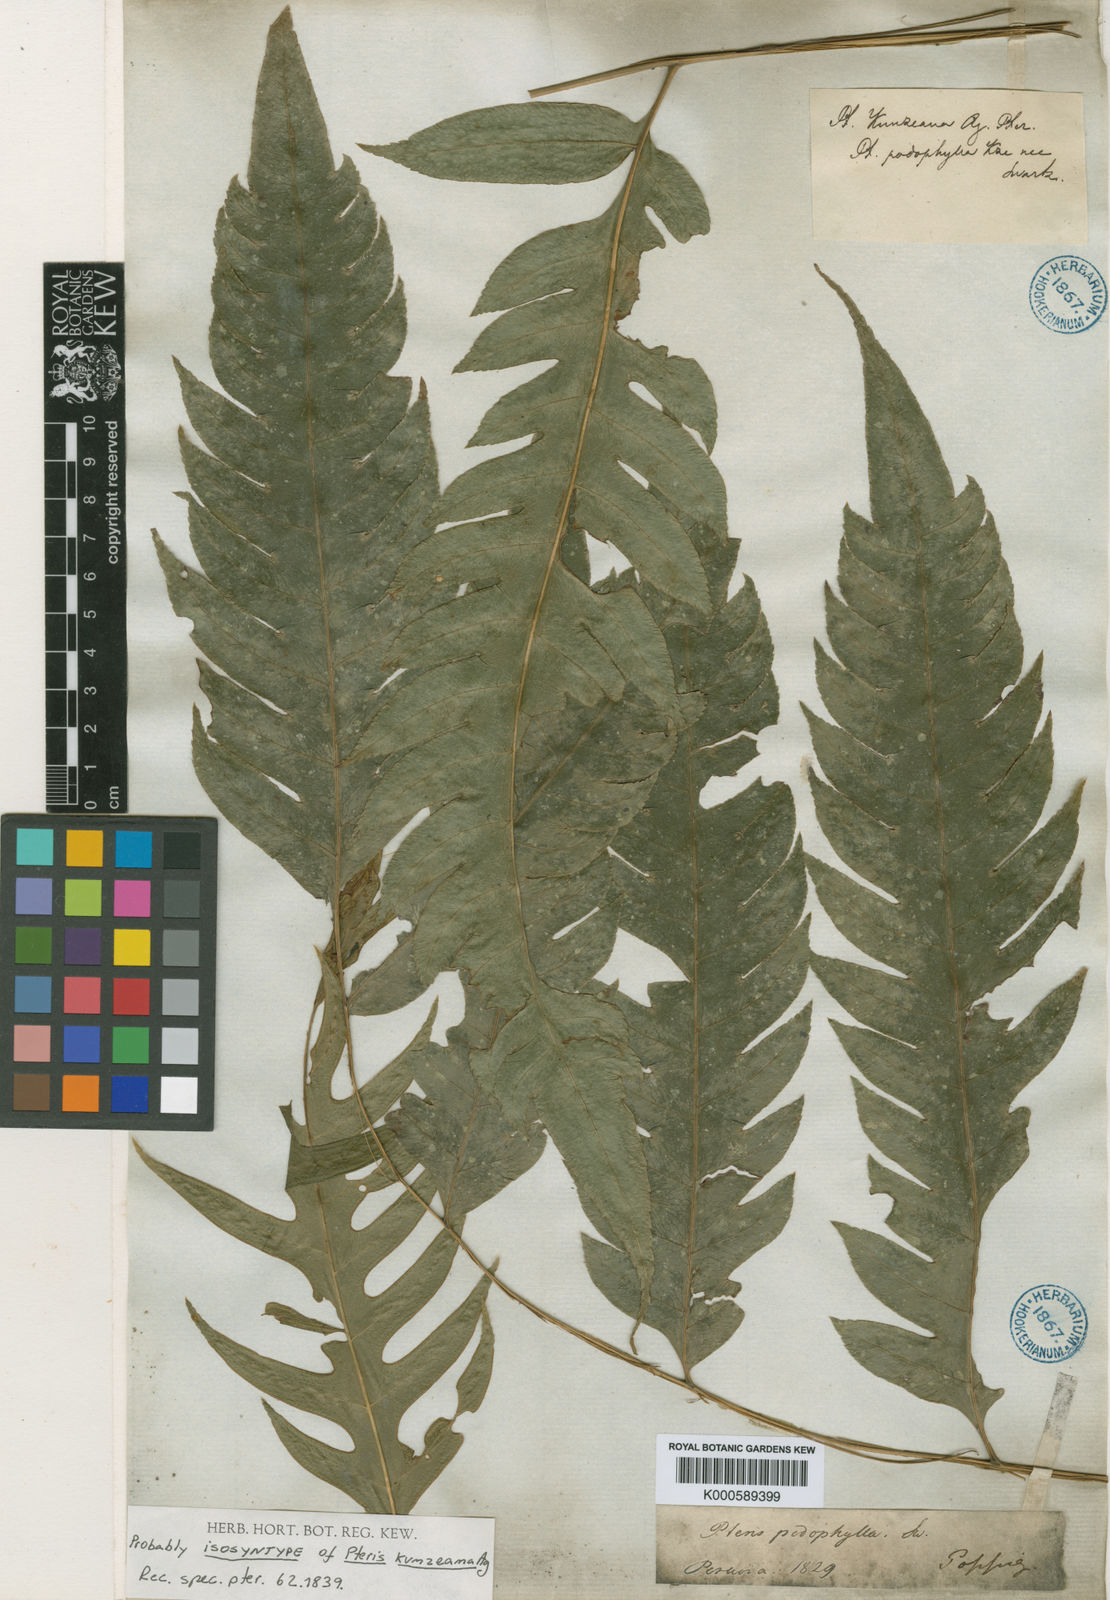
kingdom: Plantae
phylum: Tracheophyta
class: Polypodiopsida
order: Polypodiales
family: Pteridaceae
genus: Pteris
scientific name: Pteris altissima
